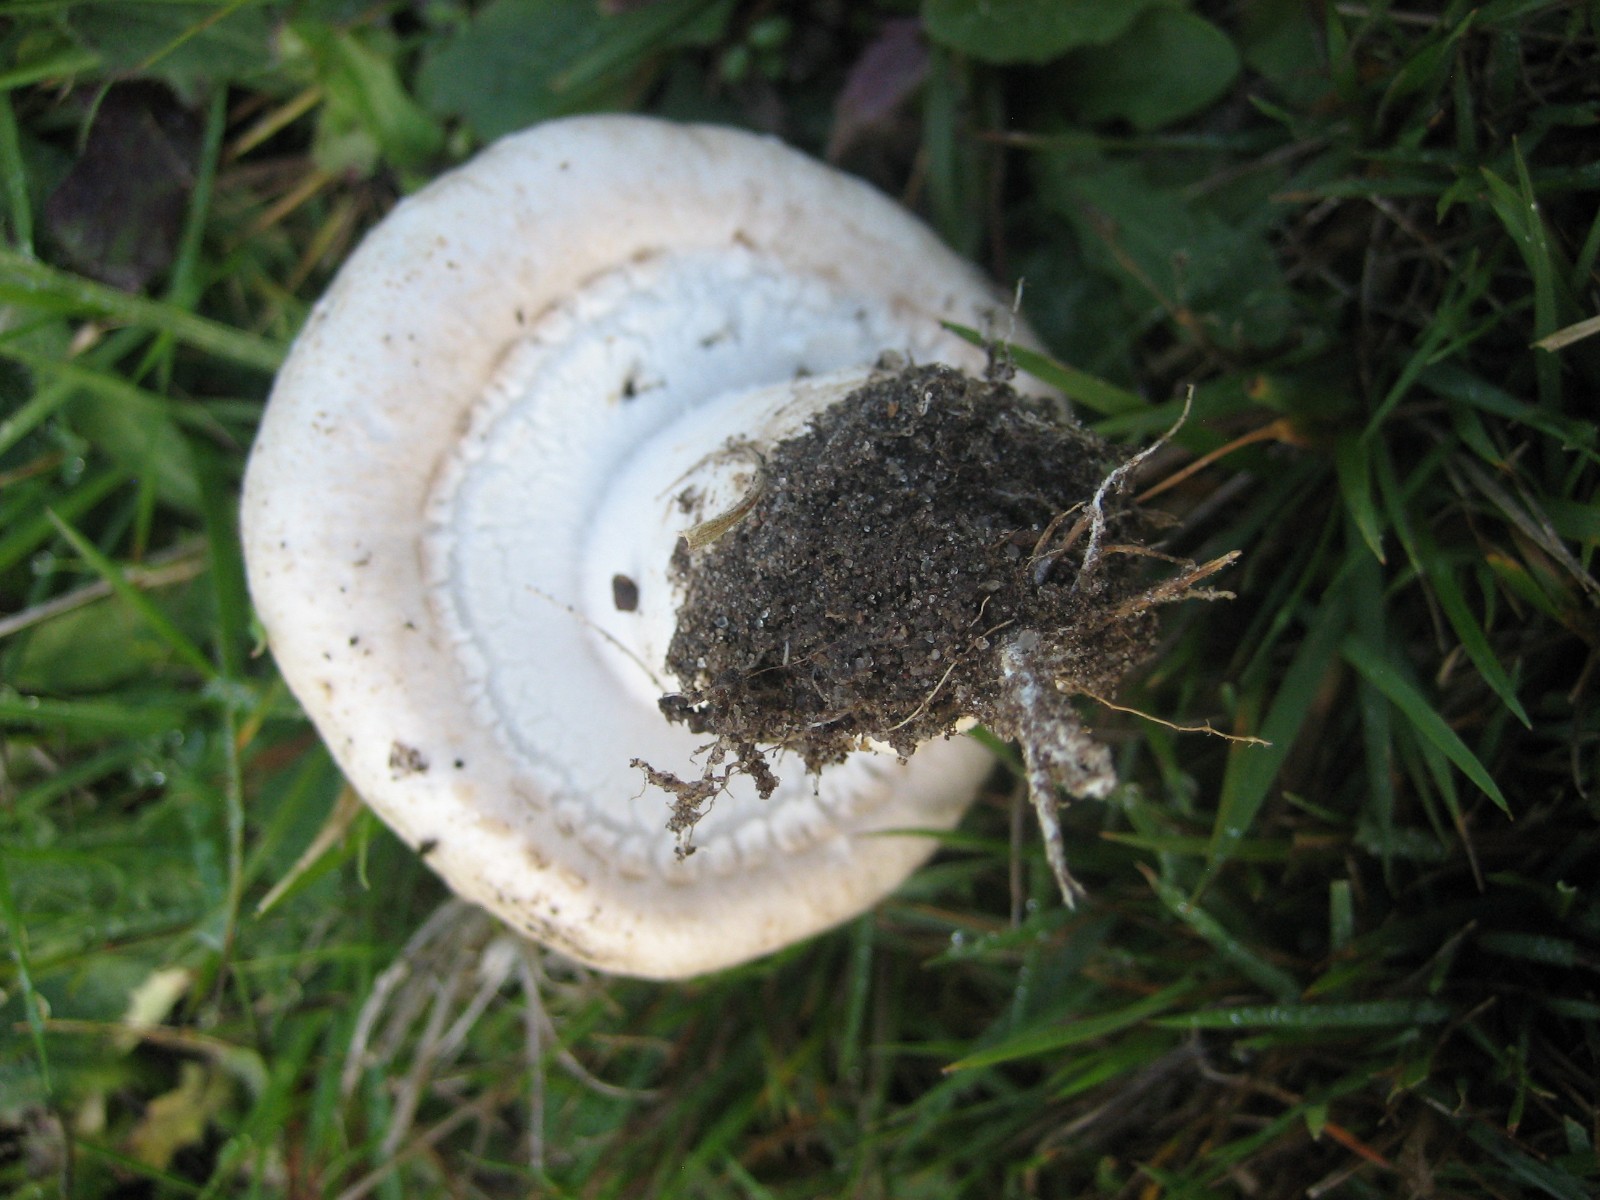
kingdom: Fungi
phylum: Basidiomycota
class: Agaricomycetes
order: Agaricales
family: Agaricaceae
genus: Agaricus
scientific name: Agaricus litoralis
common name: kyst-champignon
